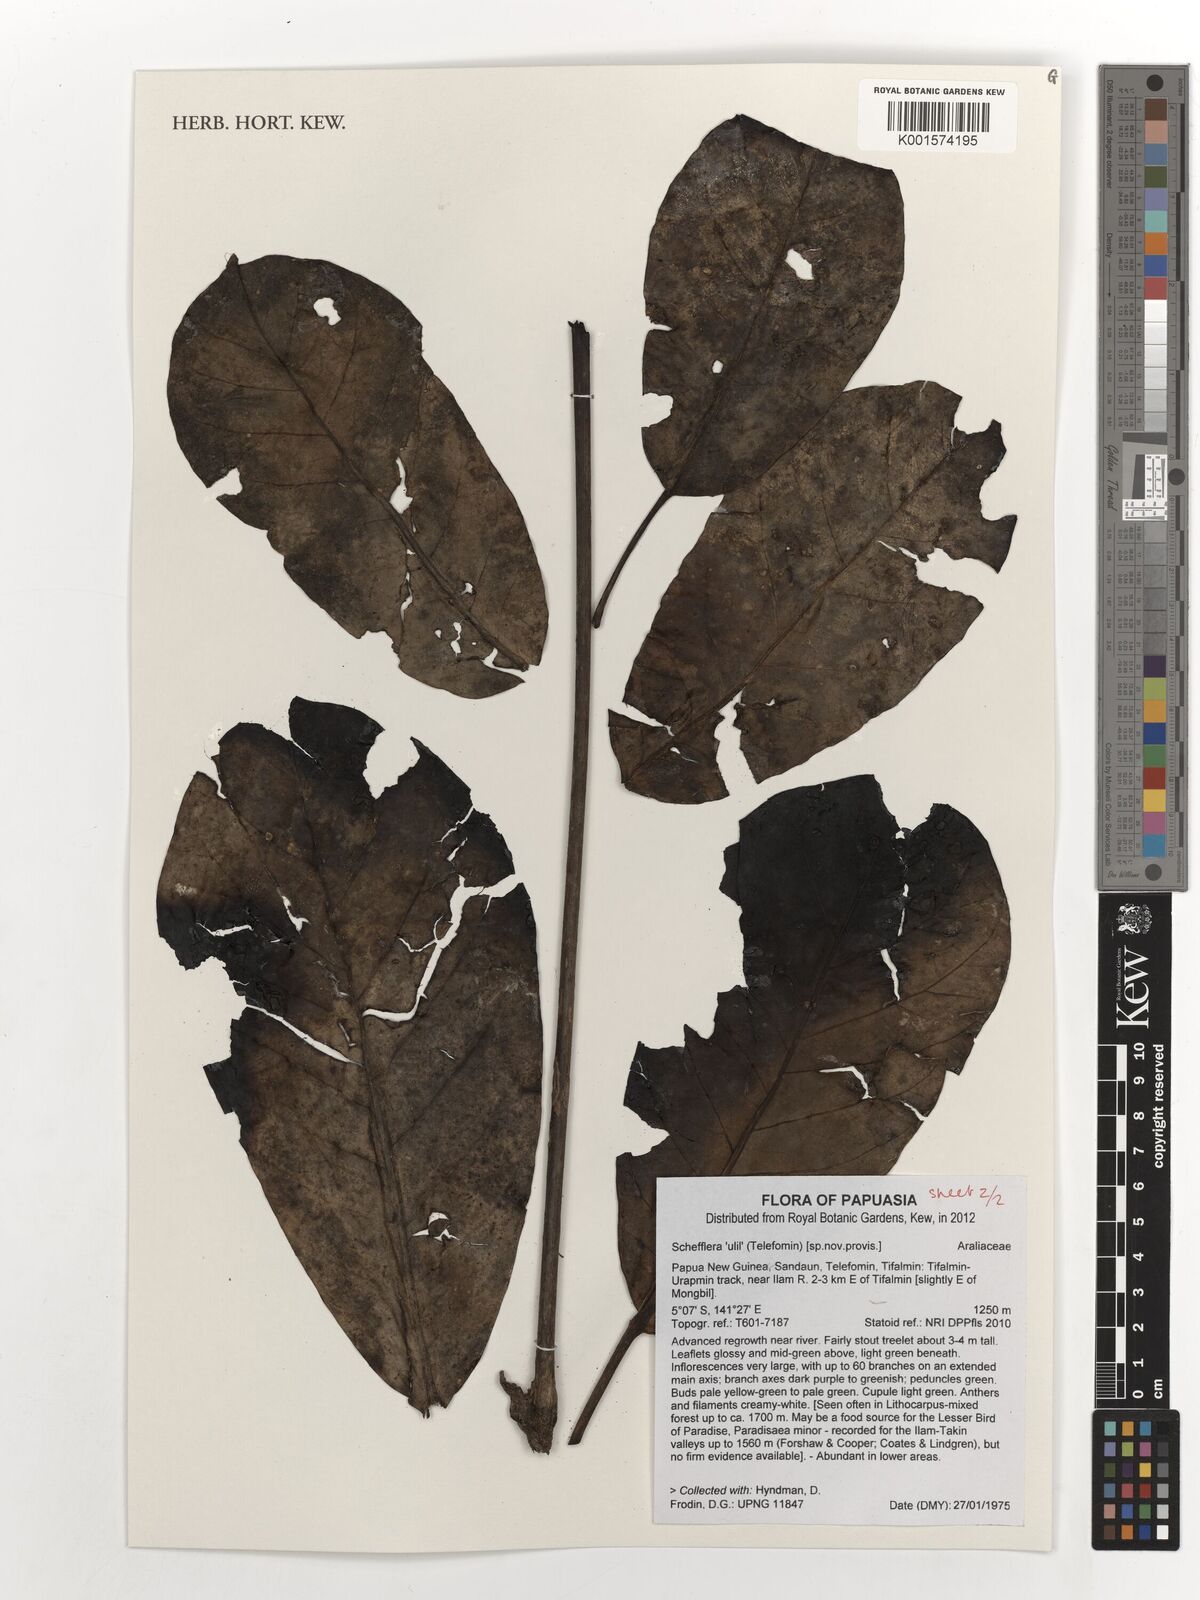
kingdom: Plantae
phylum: Tracheophyta
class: Magnoliopsida
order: Apiales
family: Araliaceae
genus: Schefflera
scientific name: Schefflera
